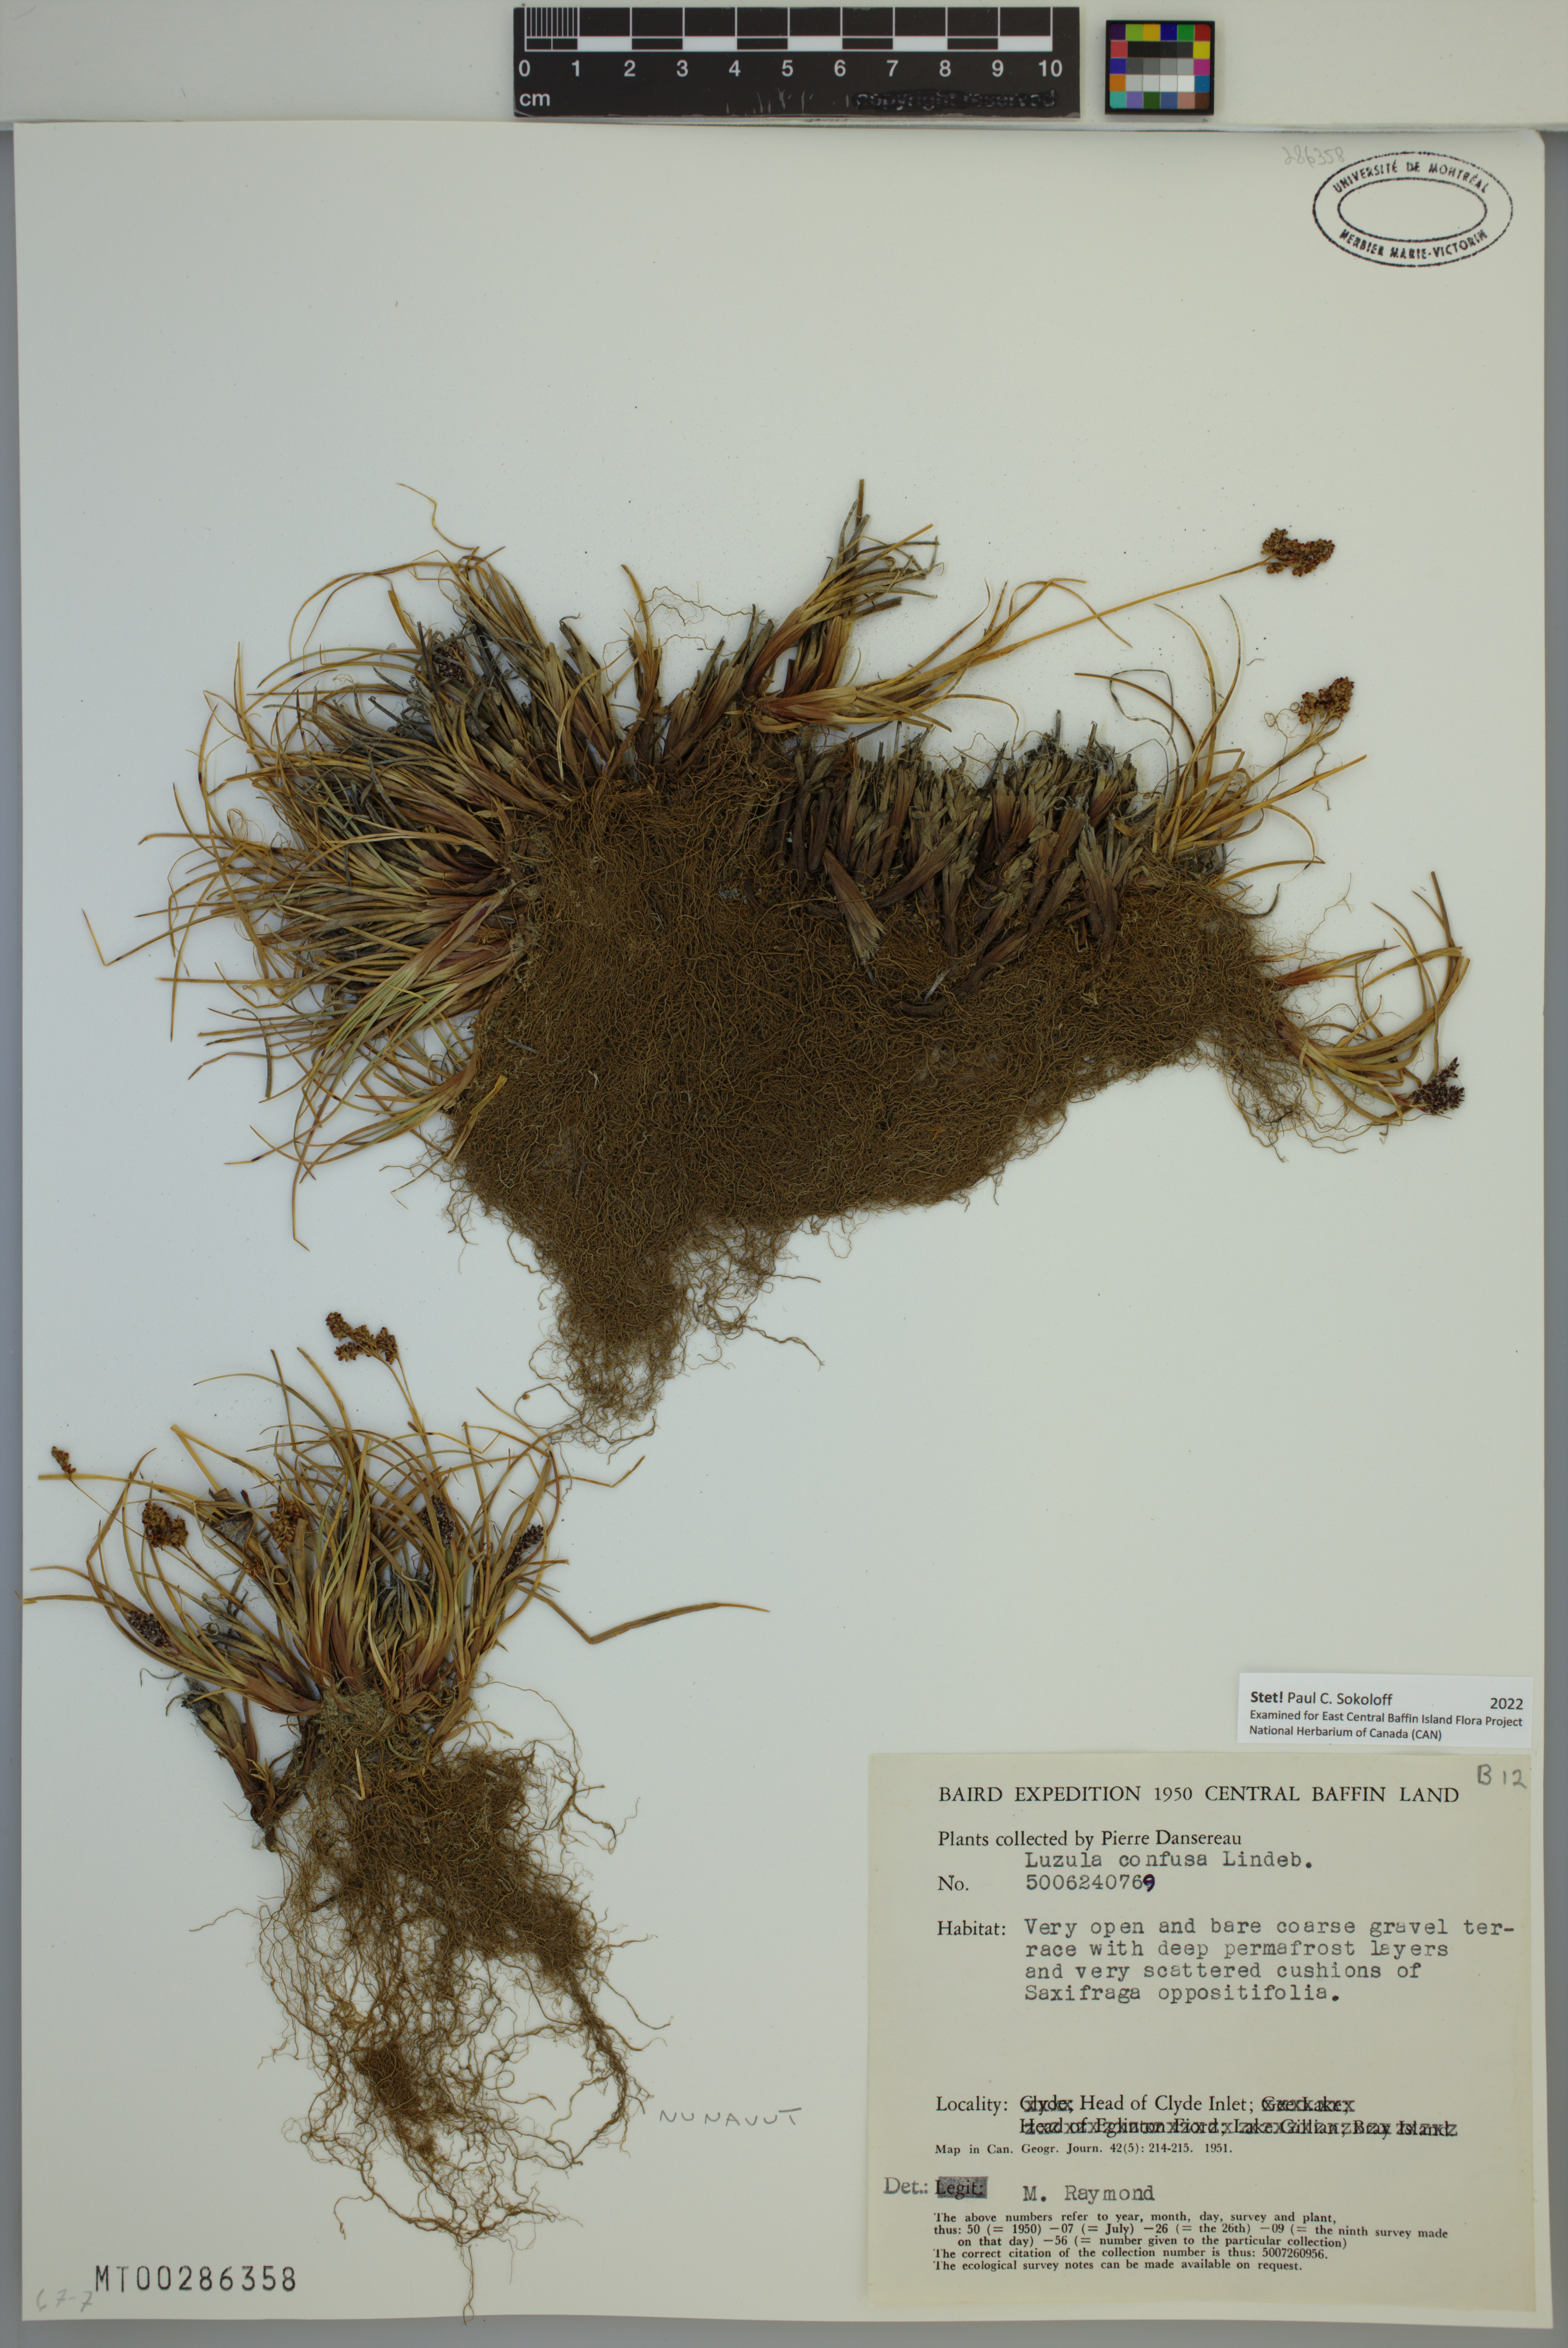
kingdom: Plantae
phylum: Tracheophyta
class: Liliopsida
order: Poales
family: Juncaceae
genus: Luzula
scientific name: Luzula confusa
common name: Northern wood rush
